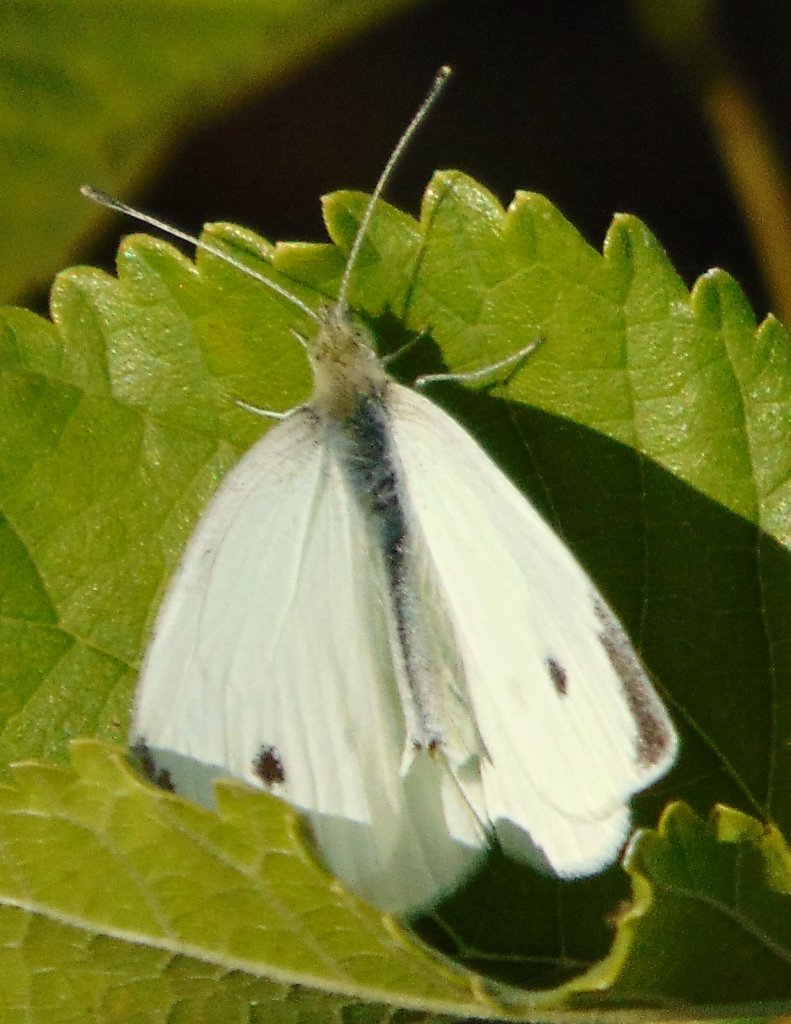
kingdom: Animalia
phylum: Arthropoda
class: Insecta
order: Lepidoptera
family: Pieridae
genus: Pieris
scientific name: Pieris rapae
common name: Cabbage White
